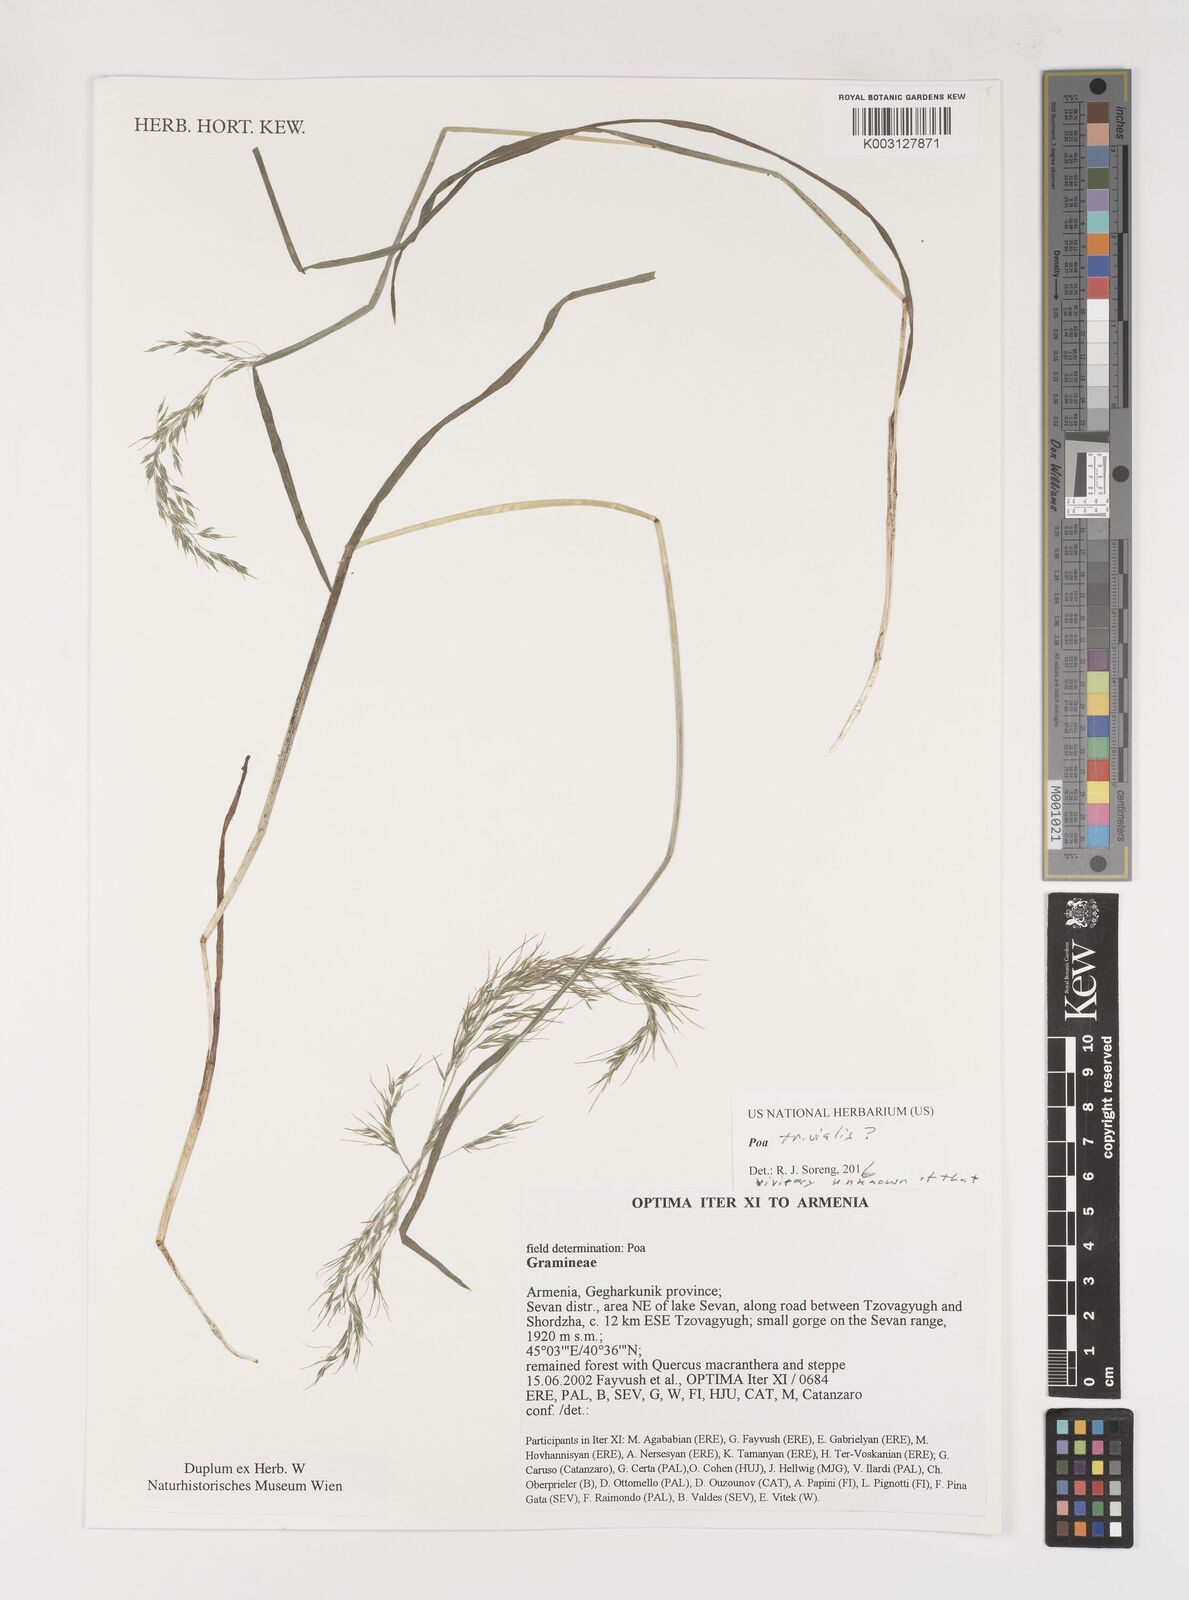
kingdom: Plantae
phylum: Tracheophyta
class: Liliopsida
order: Poales
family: Poaceae
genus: Poa
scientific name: Poa trivialis
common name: Rough bluegrass
